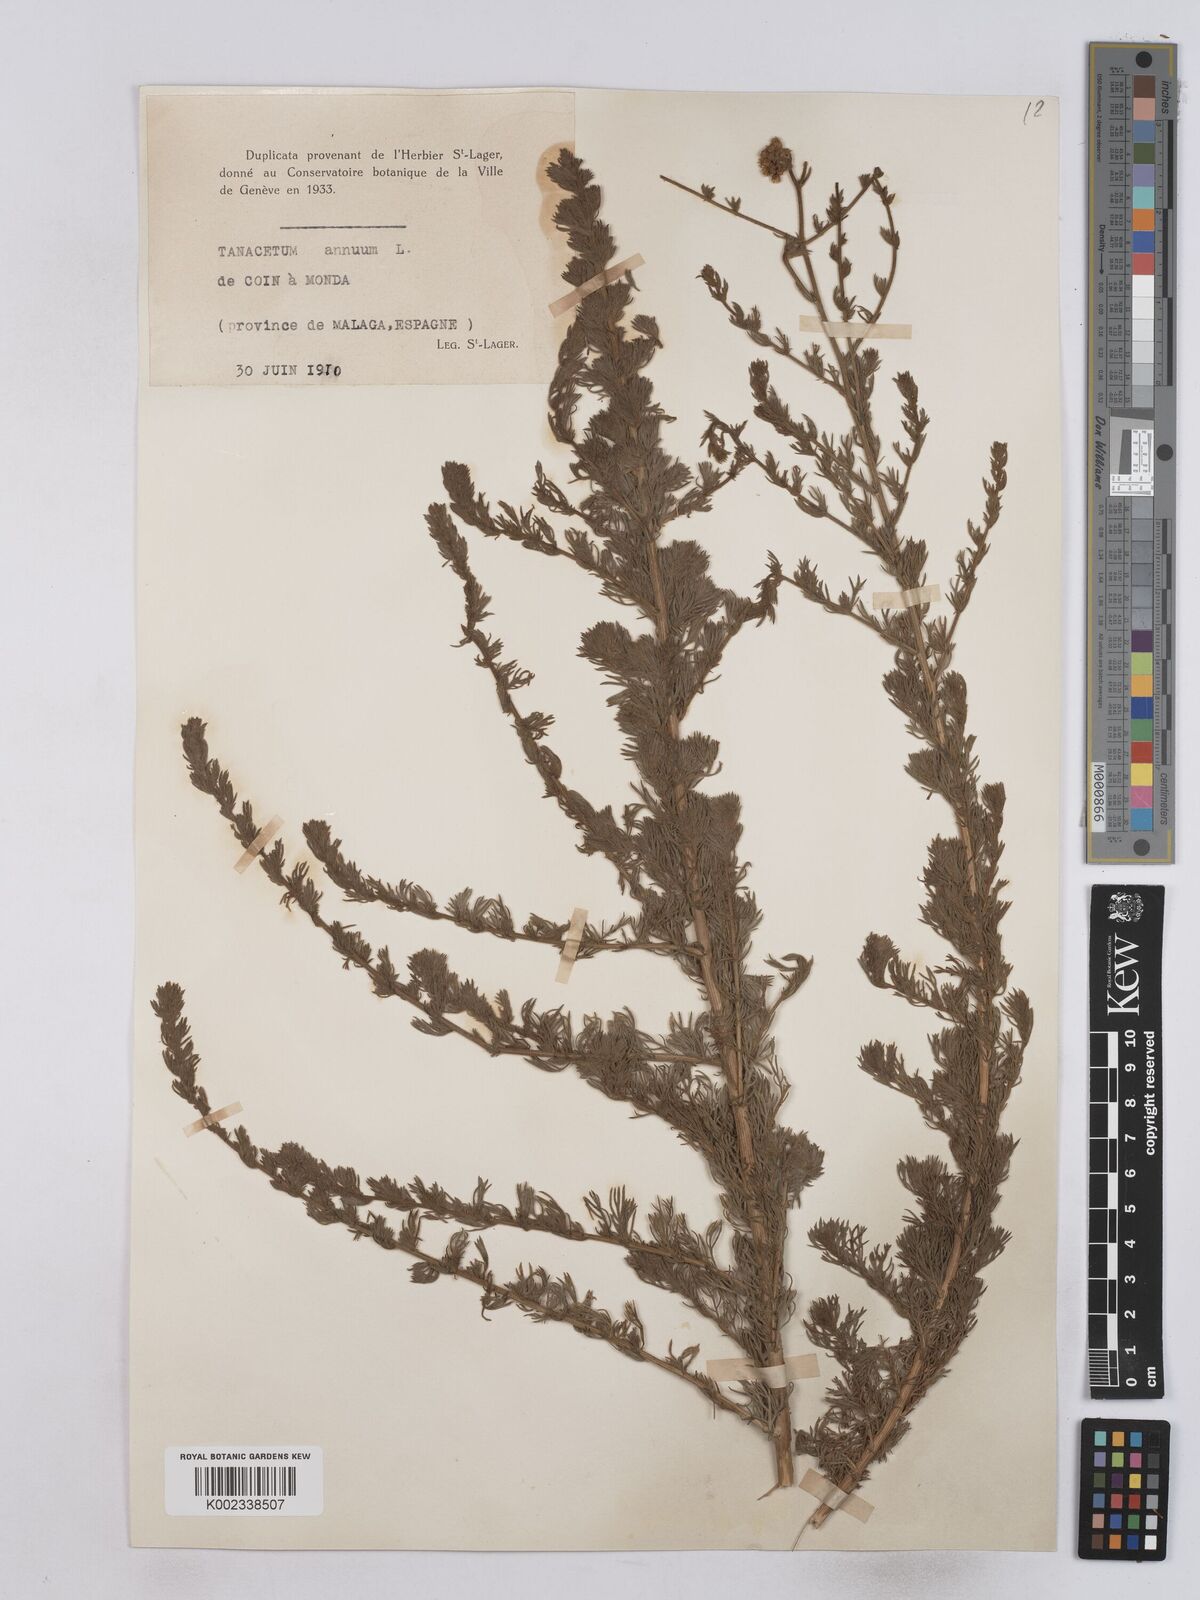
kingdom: Plantae
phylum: Tracheophyta
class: Magnoliopsida
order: Asterales
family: Asteraceae
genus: Vogtia
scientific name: Vogtia annua
